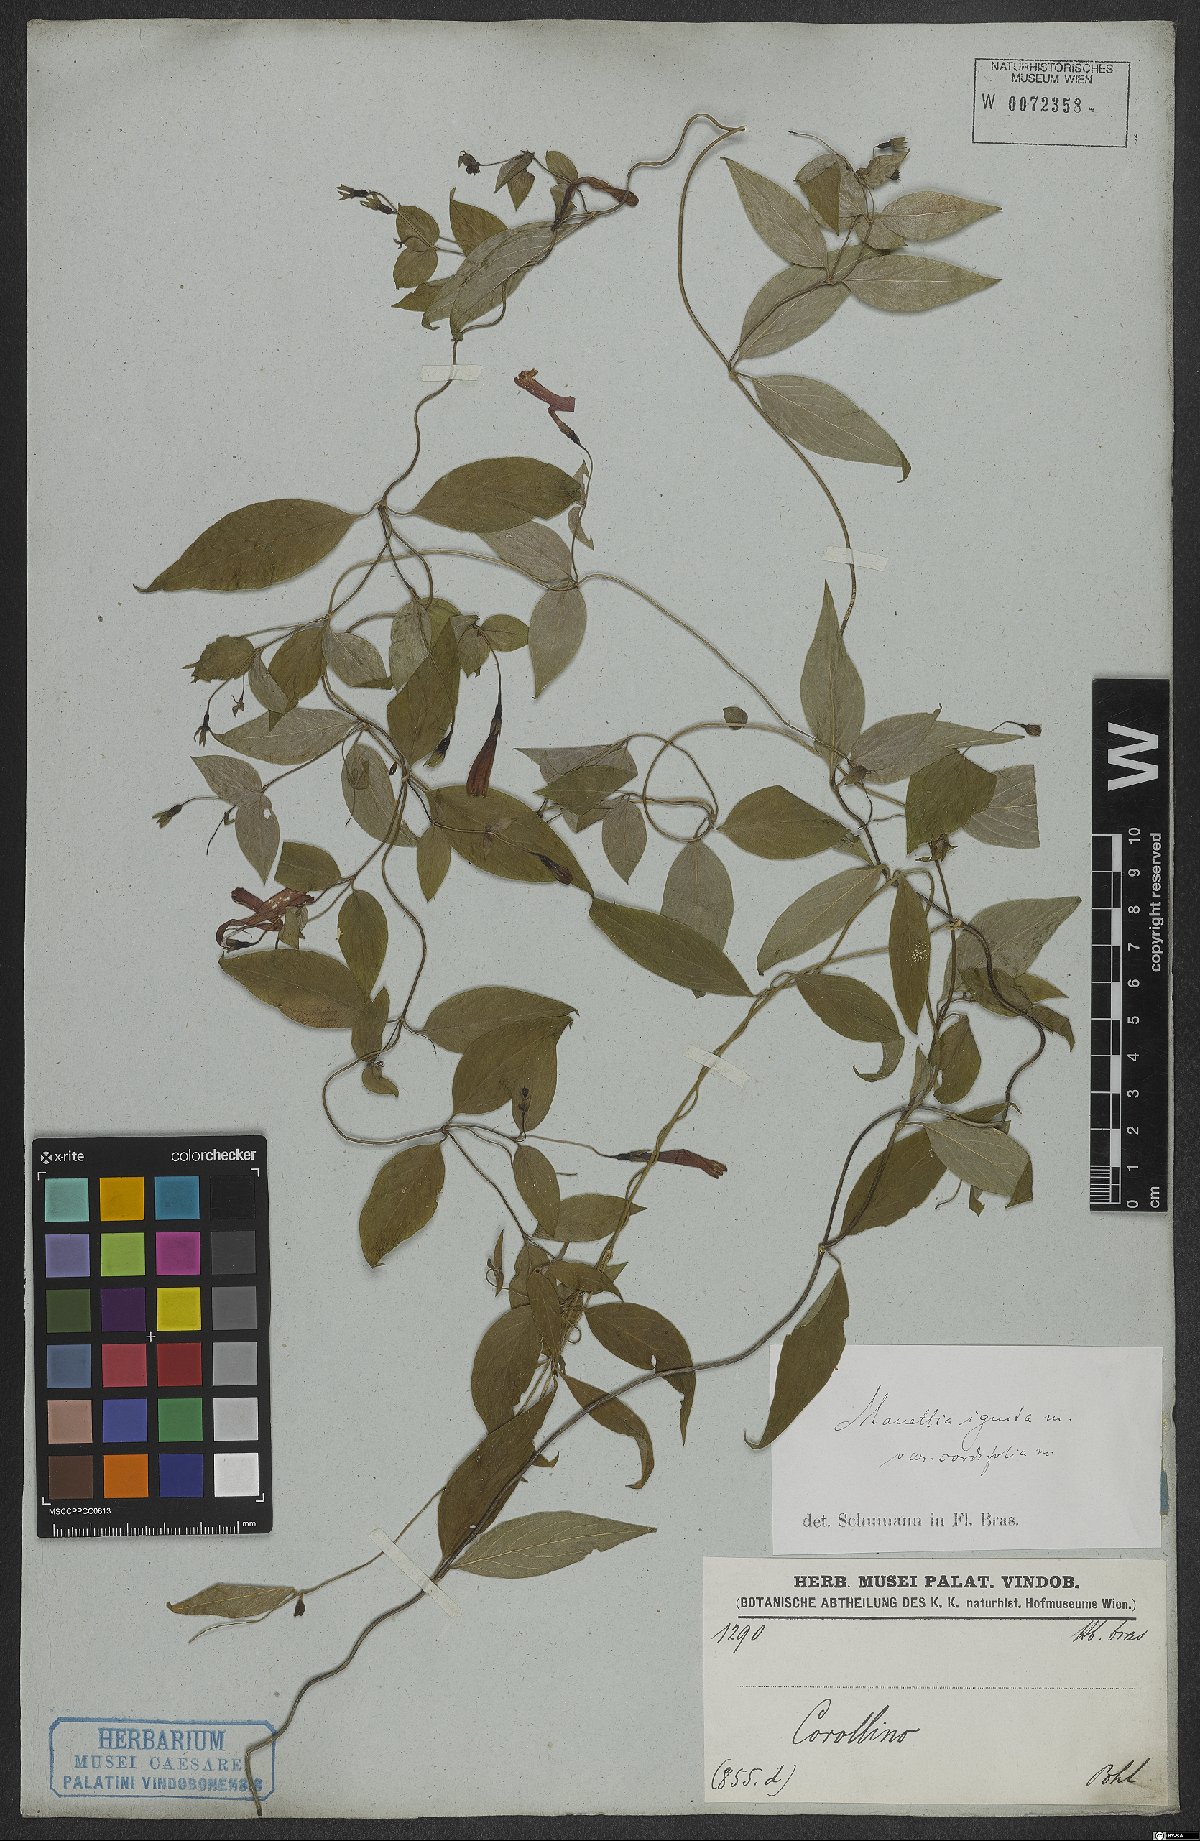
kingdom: Plantae
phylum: Tracheophyta
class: Magnoliopsida
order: Gentianales
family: Rubiaceae
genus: Manettia
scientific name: Manettia cordifolia
